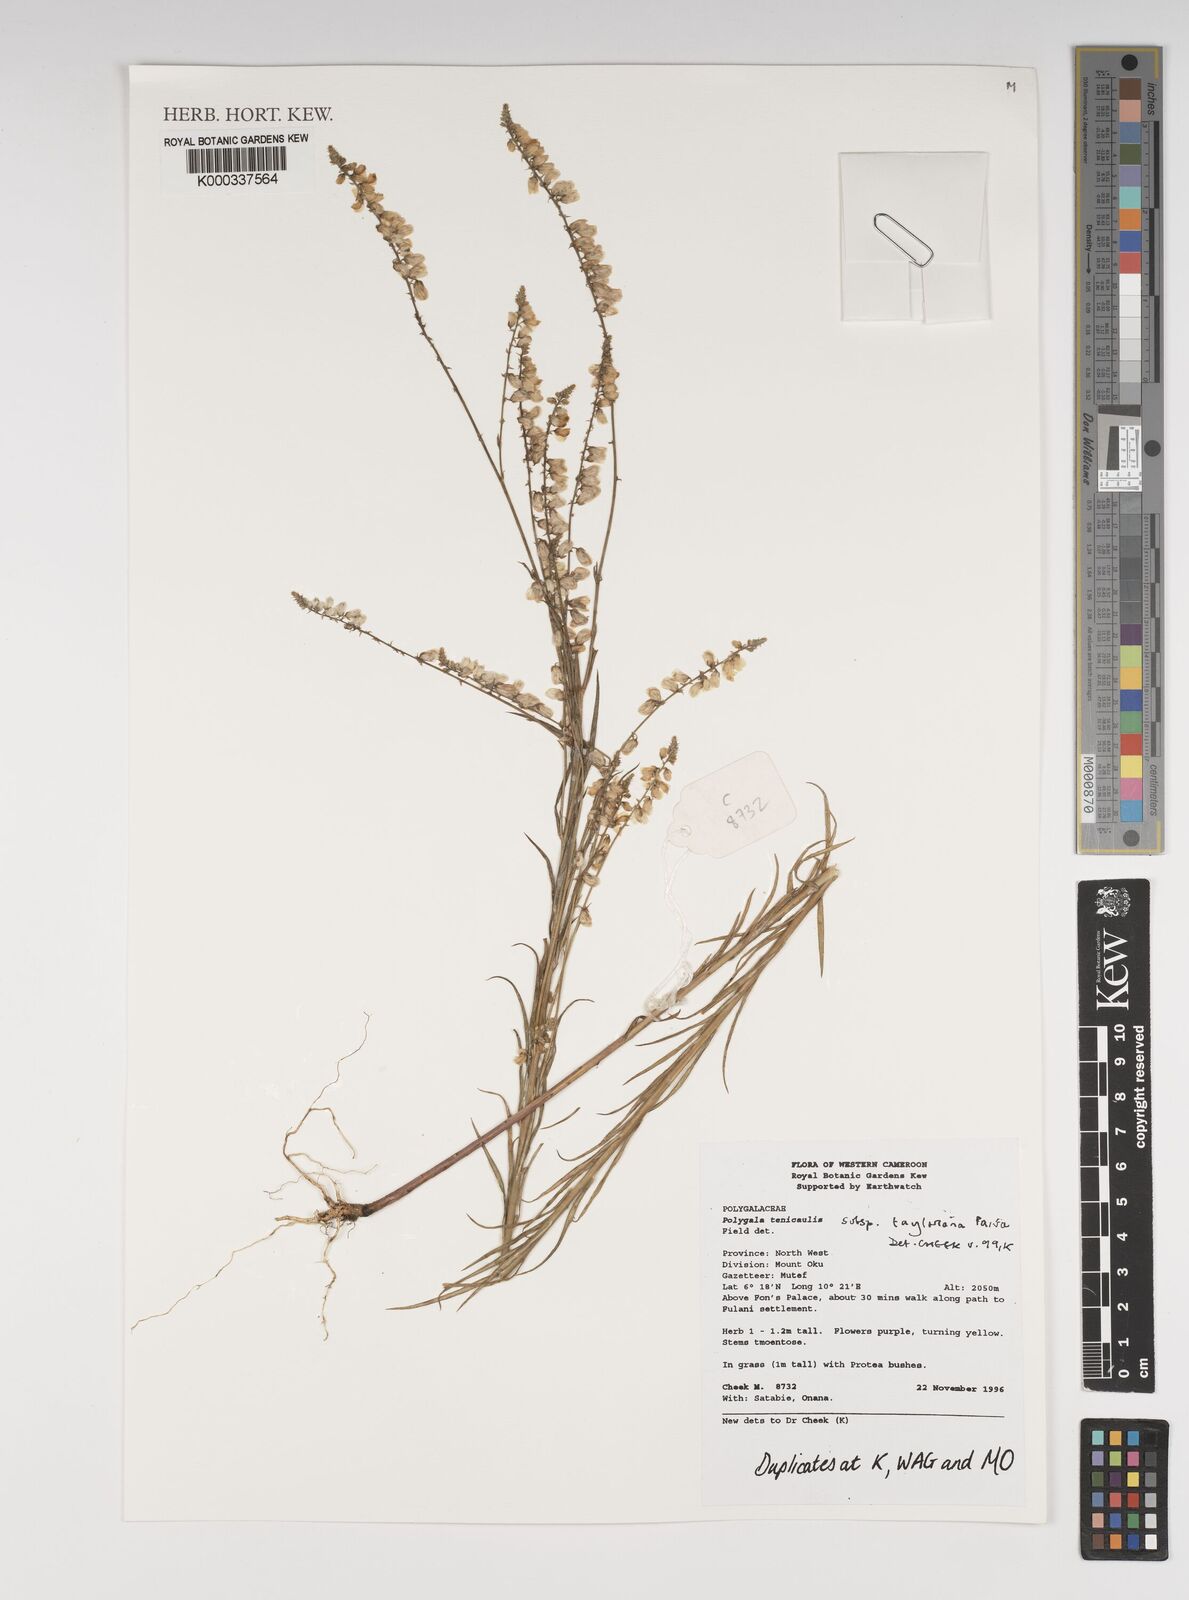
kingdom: Plantae
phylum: Tracheophyta
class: Magnoliopsida
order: Fabales
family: Polygalaceae
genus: Polygala
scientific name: Polygala tenuicaulis
